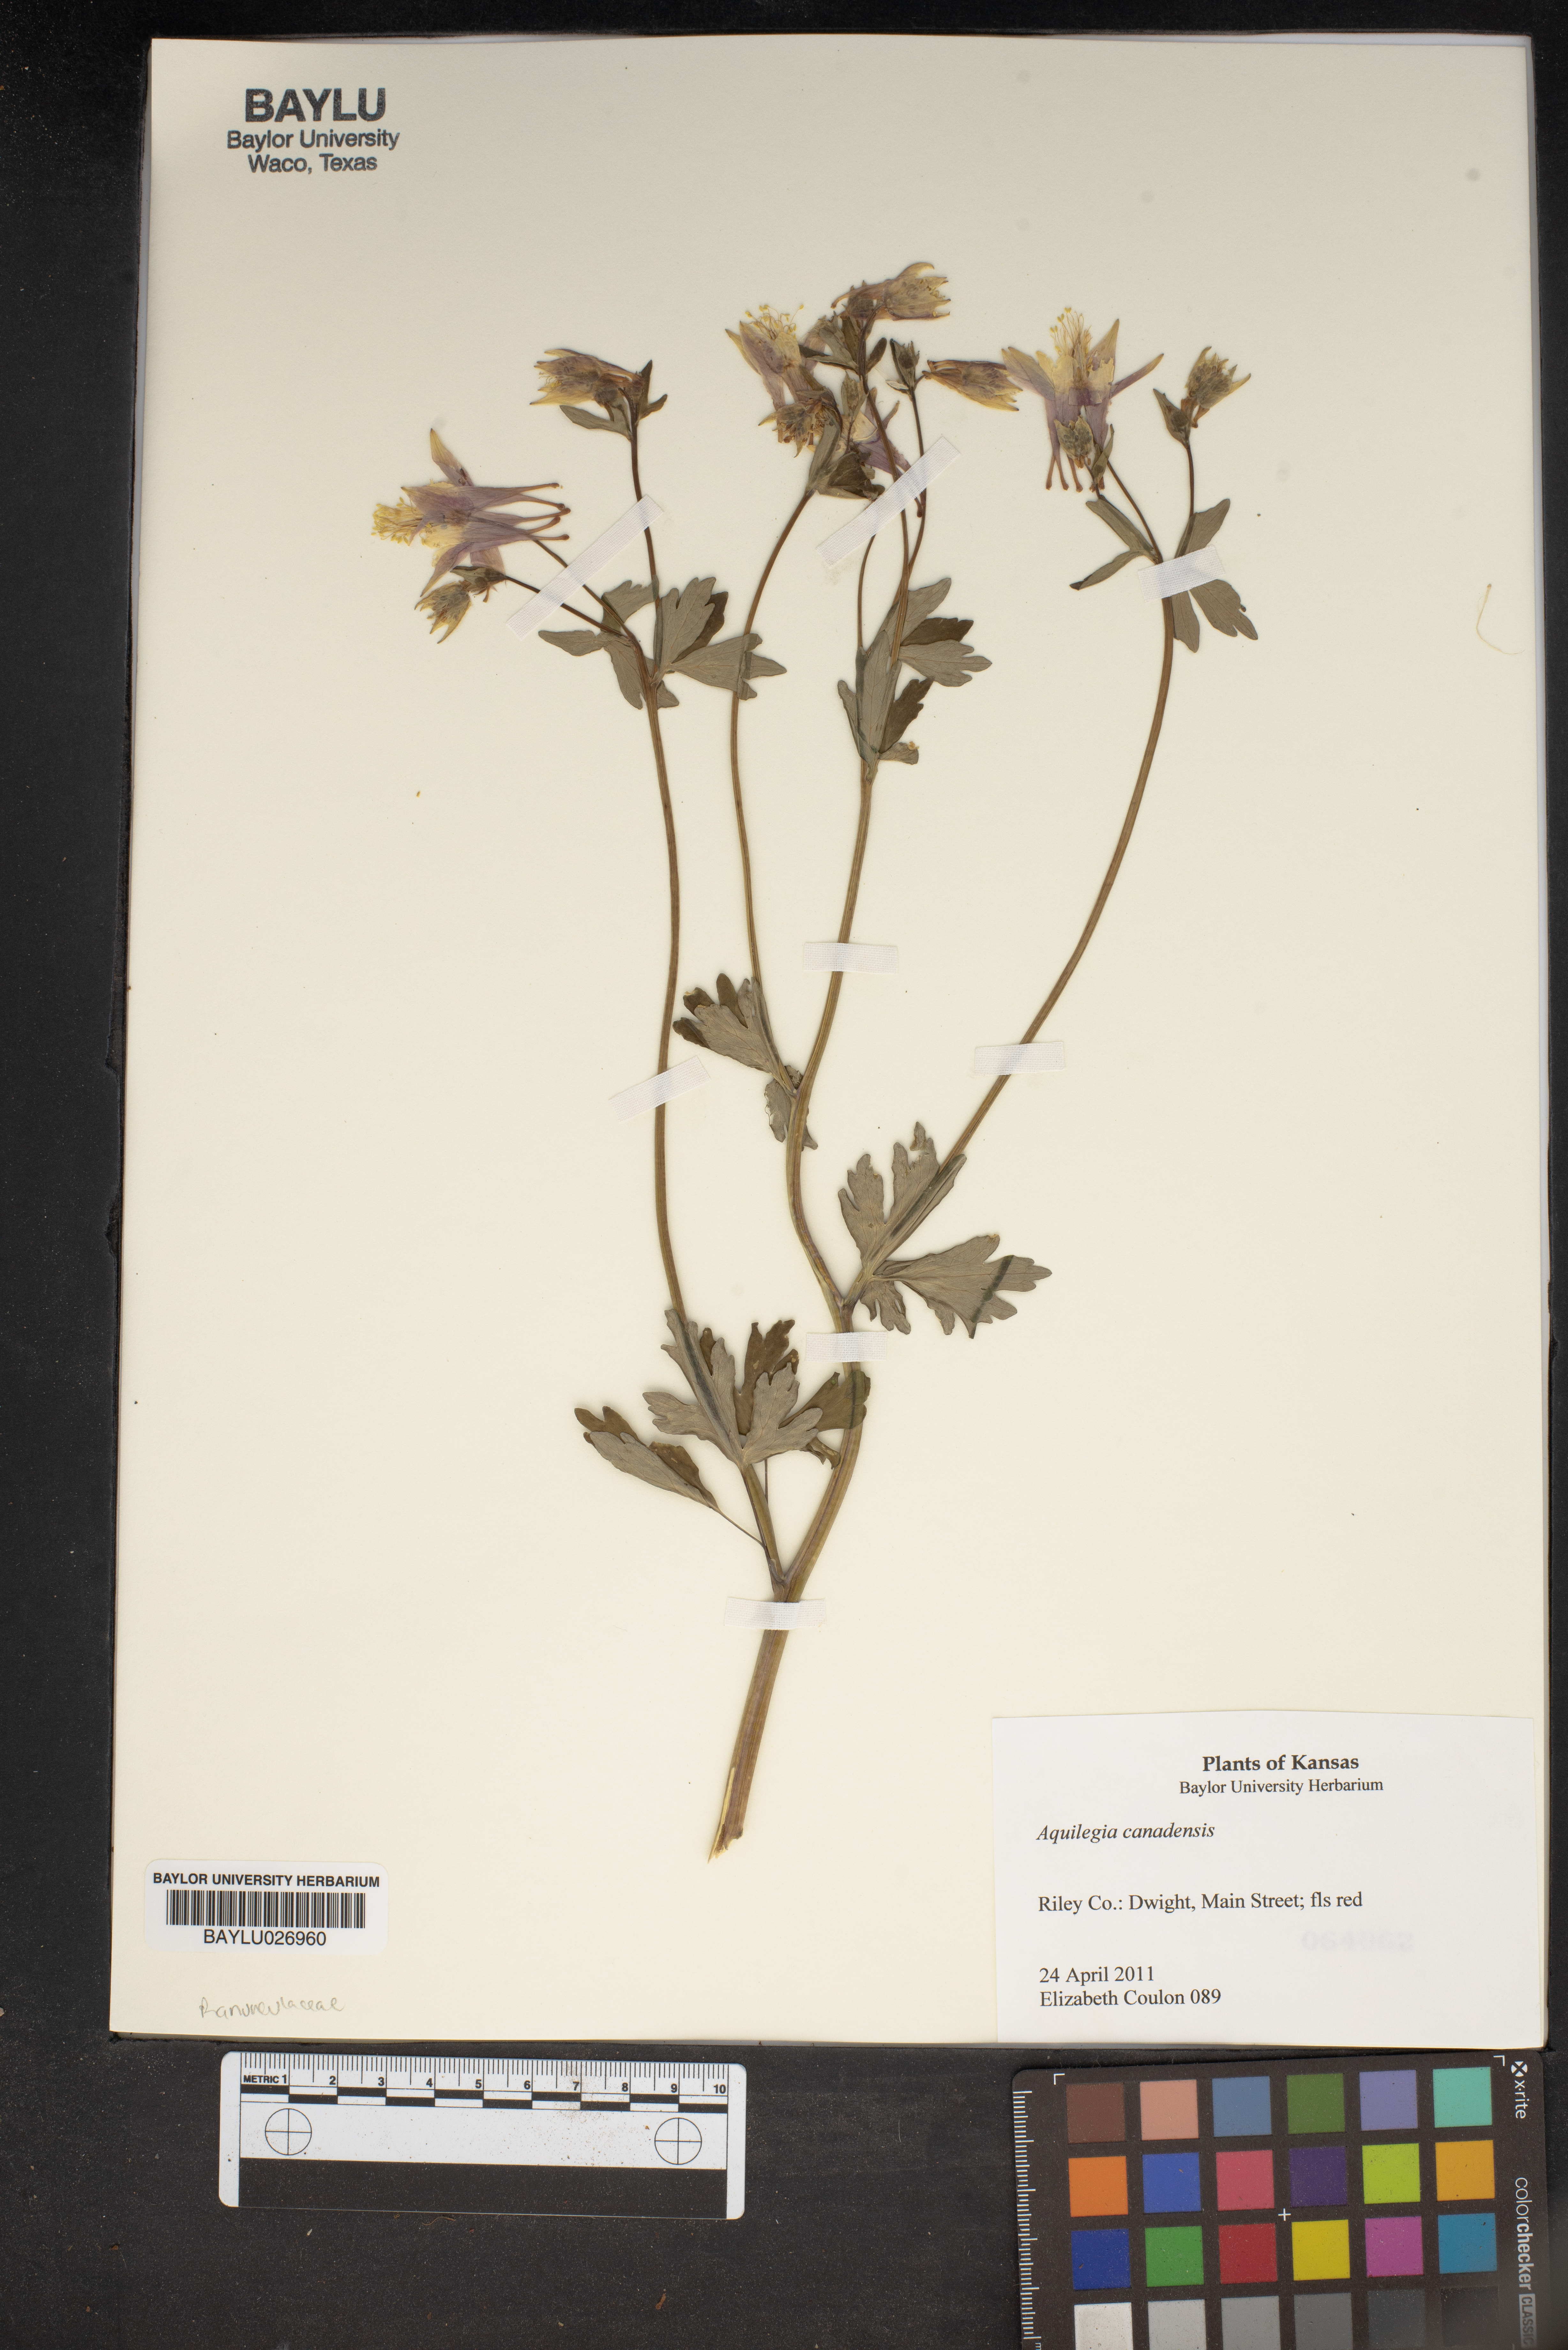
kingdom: Plantae
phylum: Tracheophyta
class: Magnoliopsida
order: Ranunculales
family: Ranunculaceae
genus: Aquilegia
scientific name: Aquilegia canadensis
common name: American columbine
